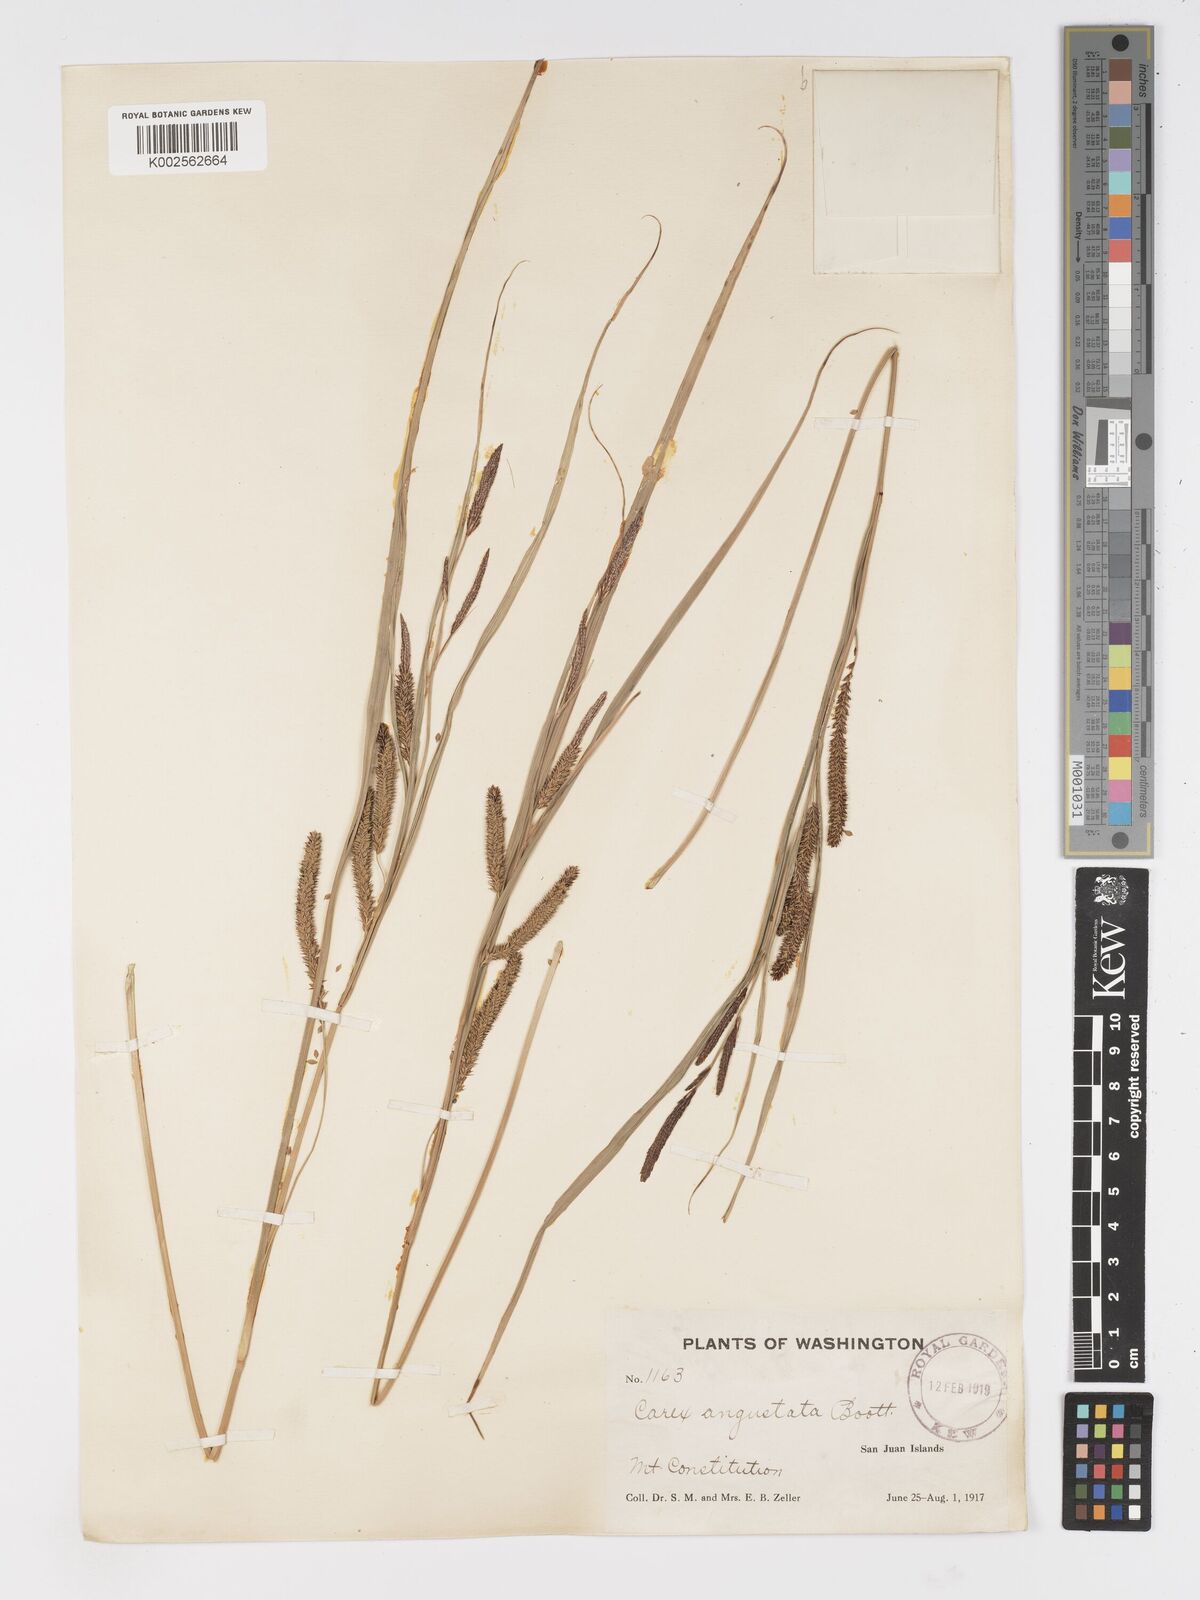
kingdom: Plantae
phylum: Tracheophyta
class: Liliopsida
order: Poales
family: Cyperaceae
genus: Carex
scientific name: Carex stricta
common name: Hummock sedge
